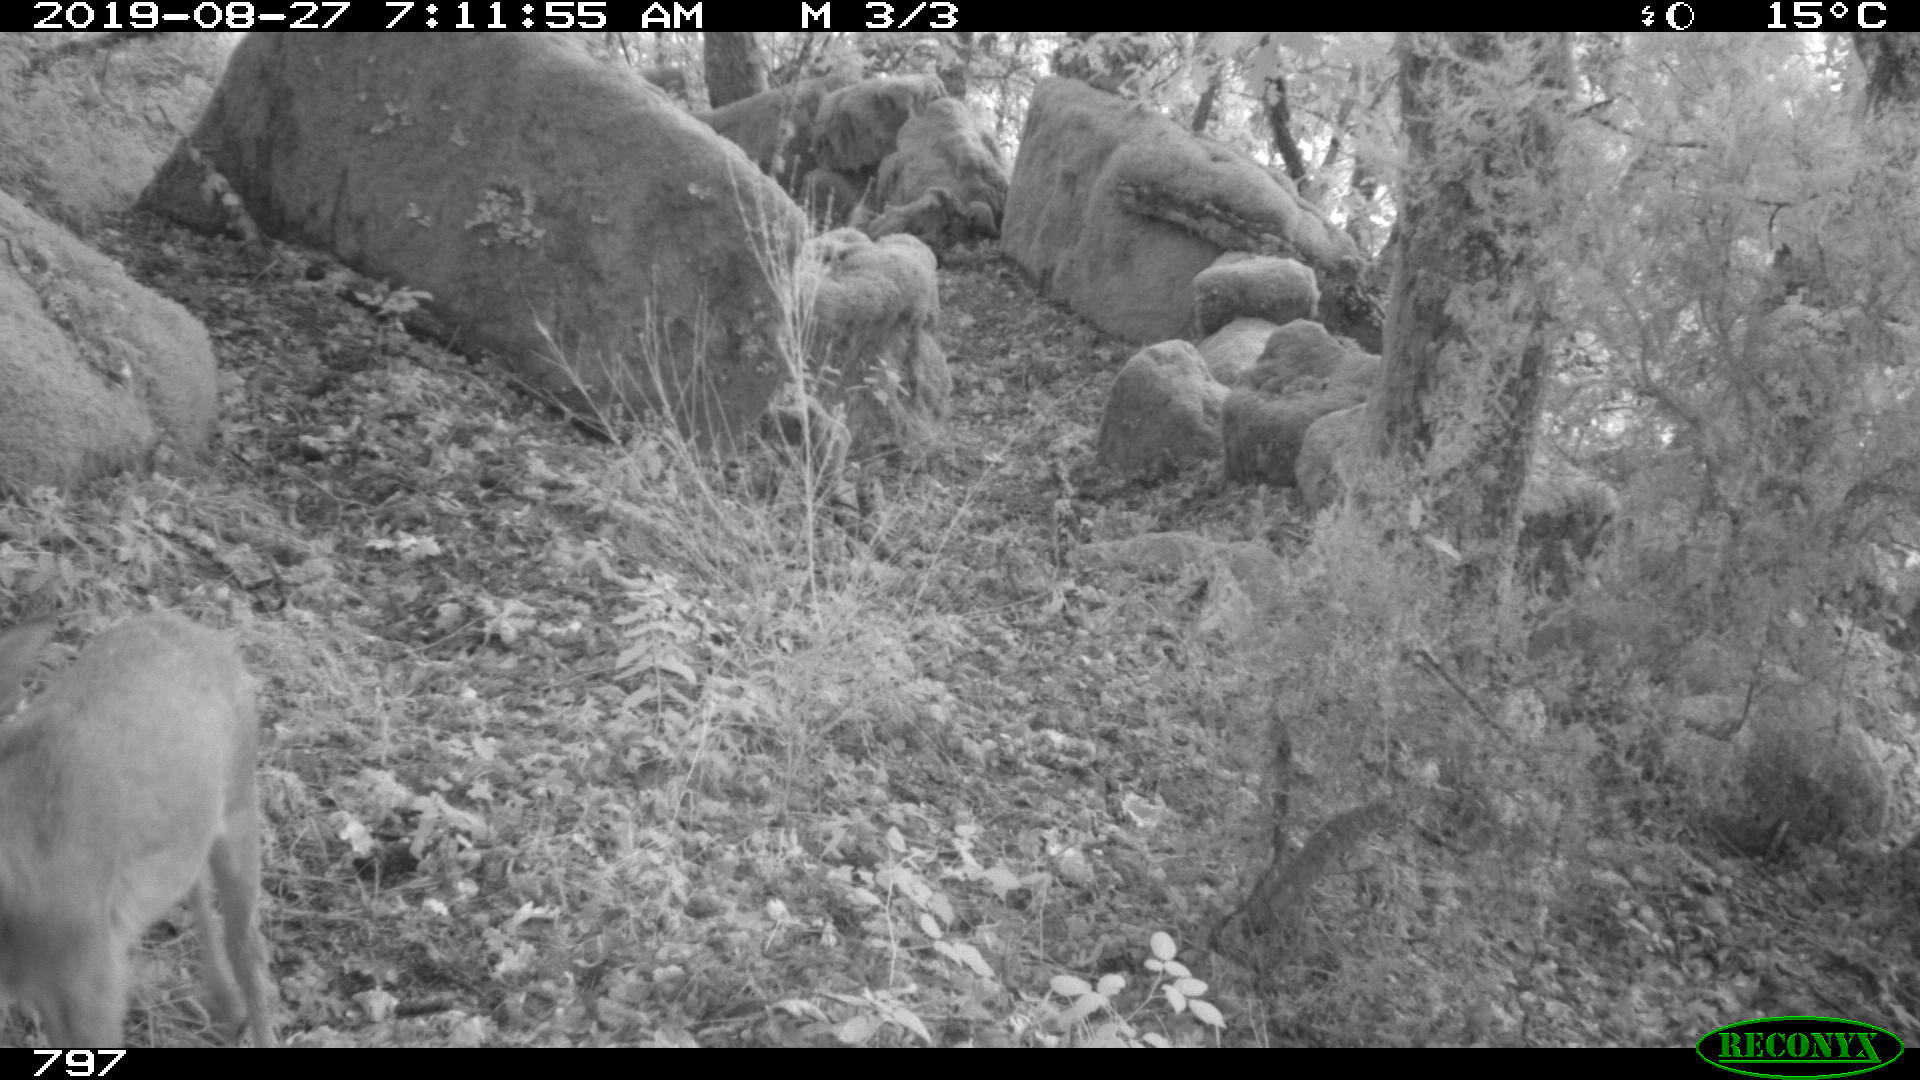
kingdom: Animalia
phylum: Chordata
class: Mammalia
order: Artiodactyla
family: Cervidae
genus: Capreolus
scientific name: Capreolus capreolus
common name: Western roe deer
